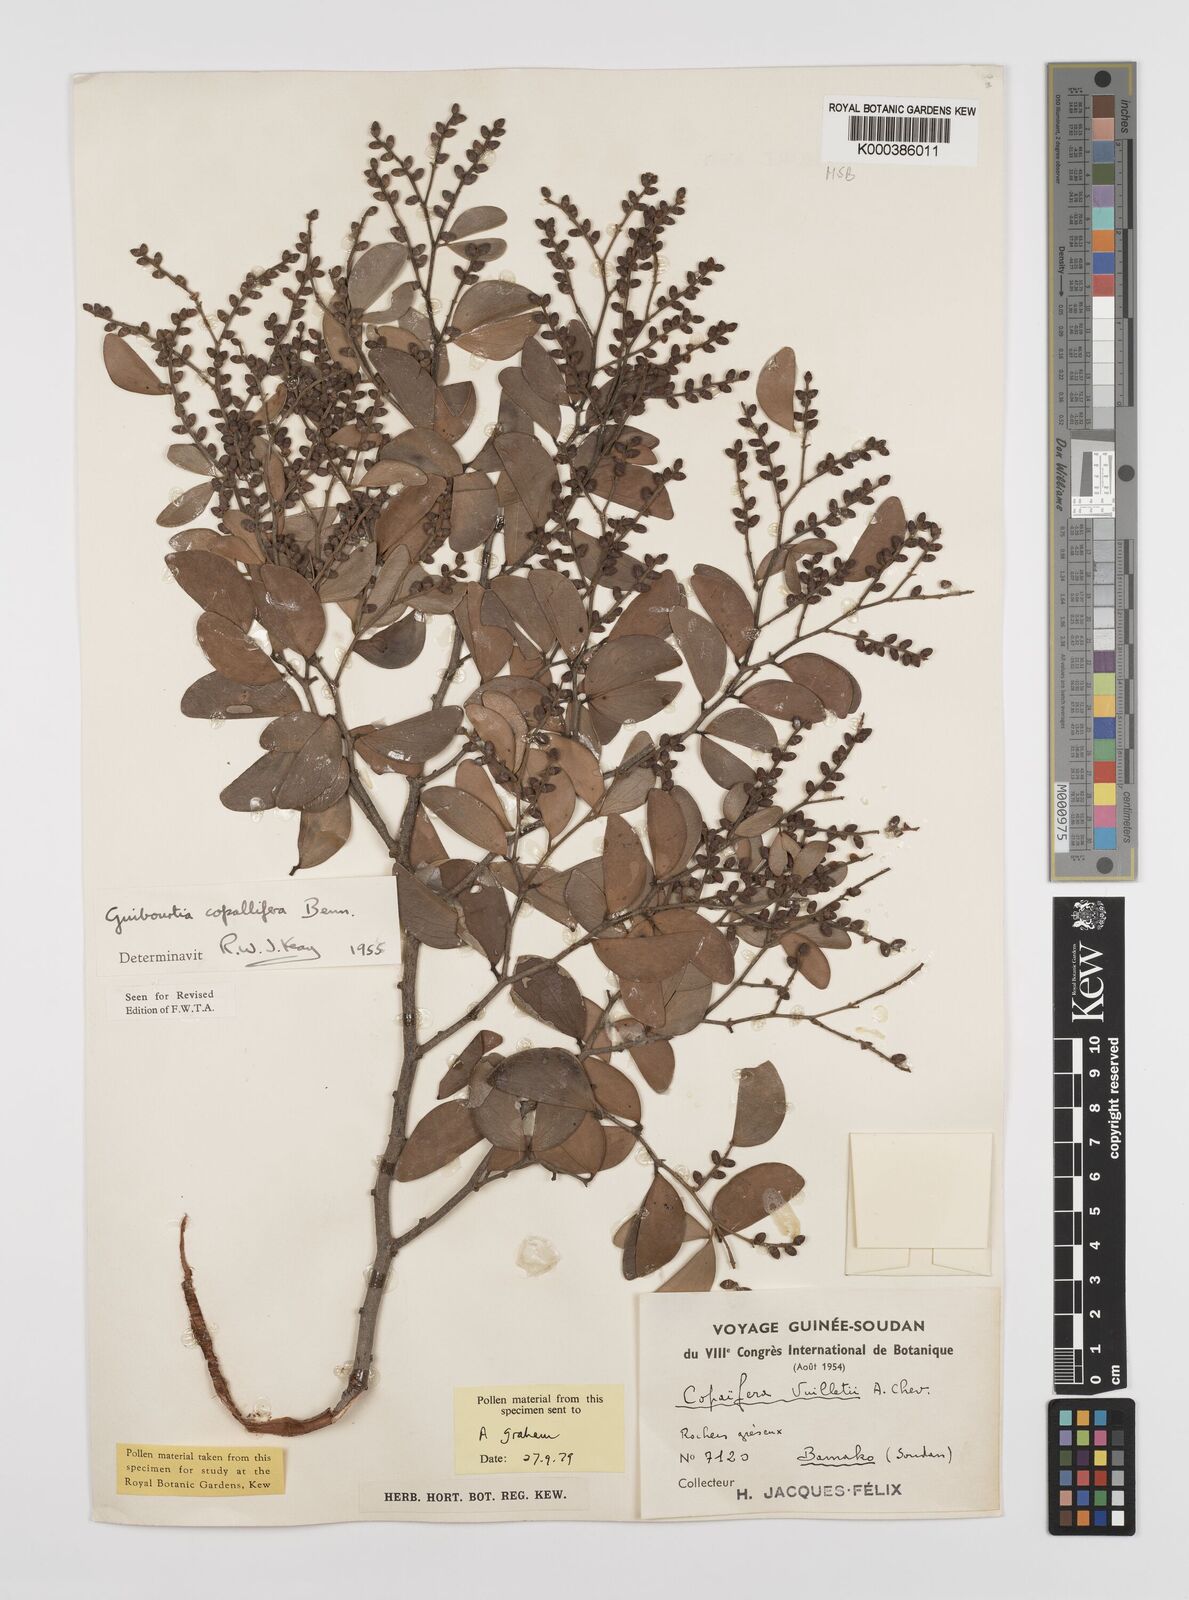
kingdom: Plantae
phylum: Tracheophyta
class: Magnoliopsida
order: Fabales
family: Fabaceae
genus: Guibourtia
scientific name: Guibourtia copallifera
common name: Kobo tree
